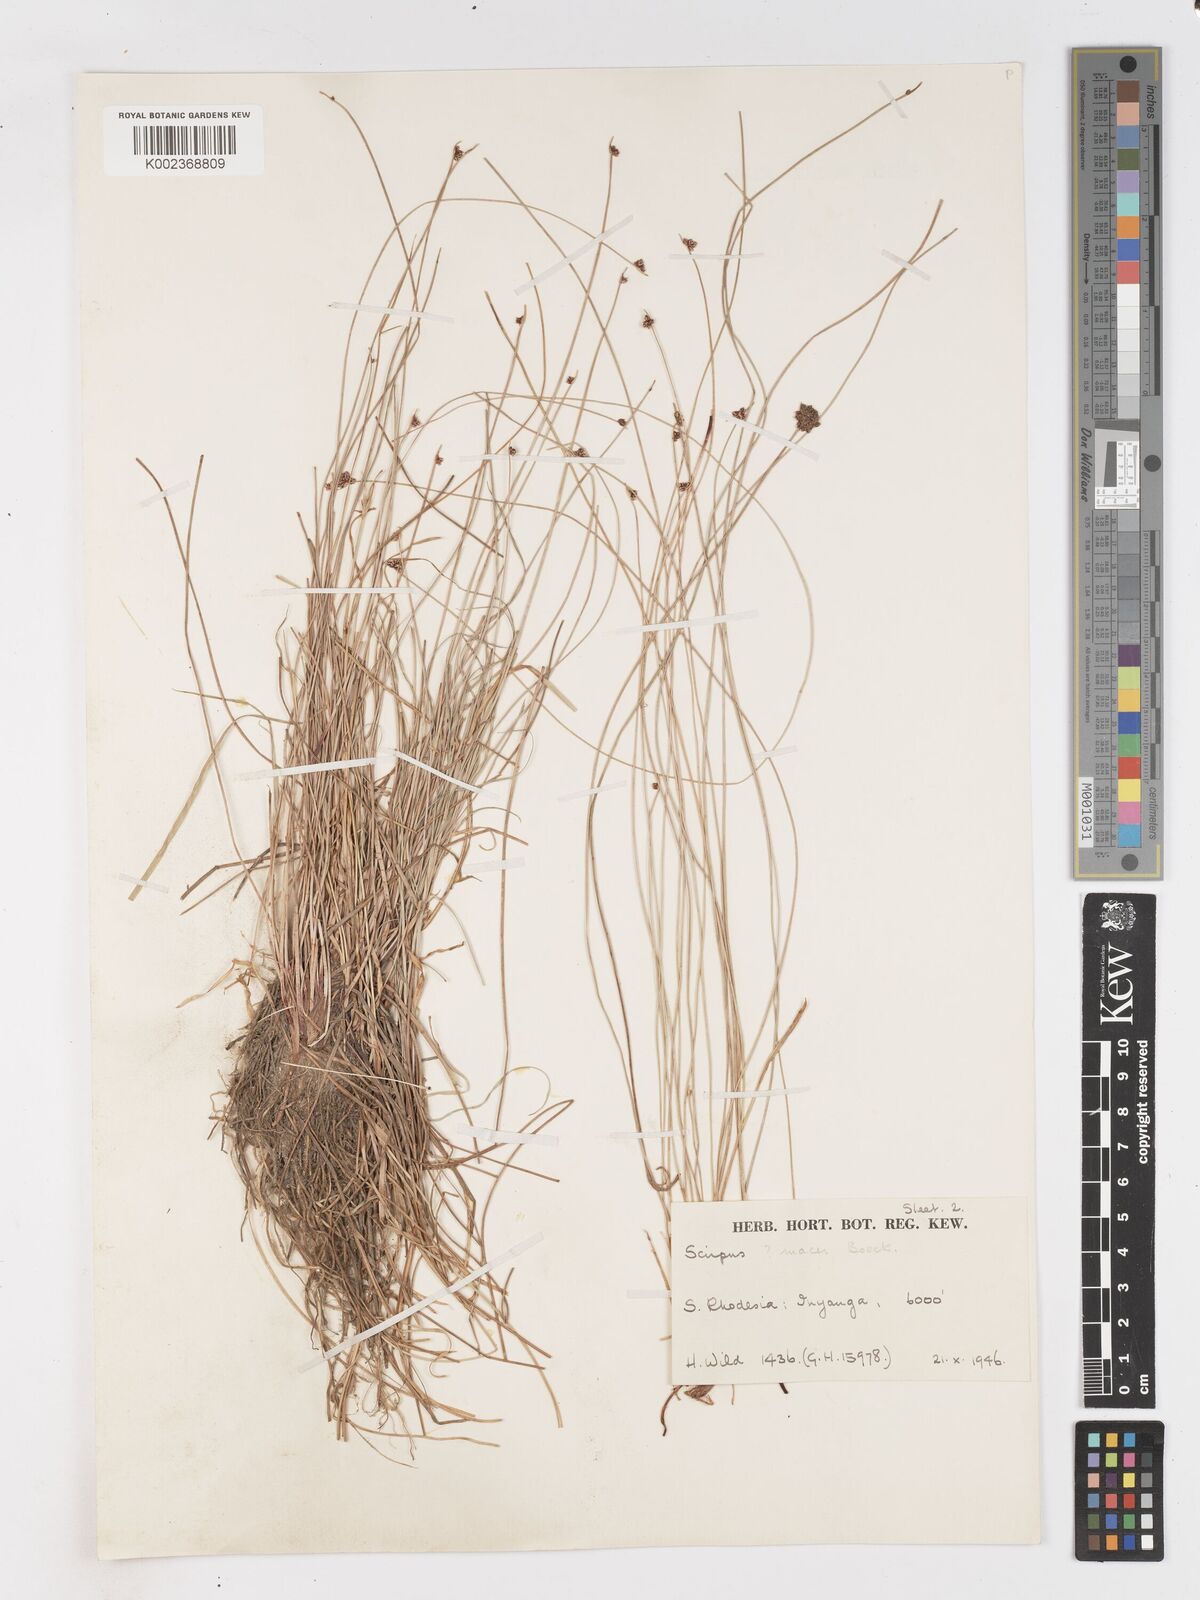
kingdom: Plantae
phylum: Tracheophyta
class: Liliopsida
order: Poales
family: Cyperaceae
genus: Isolepis
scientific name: Isolepis costata
